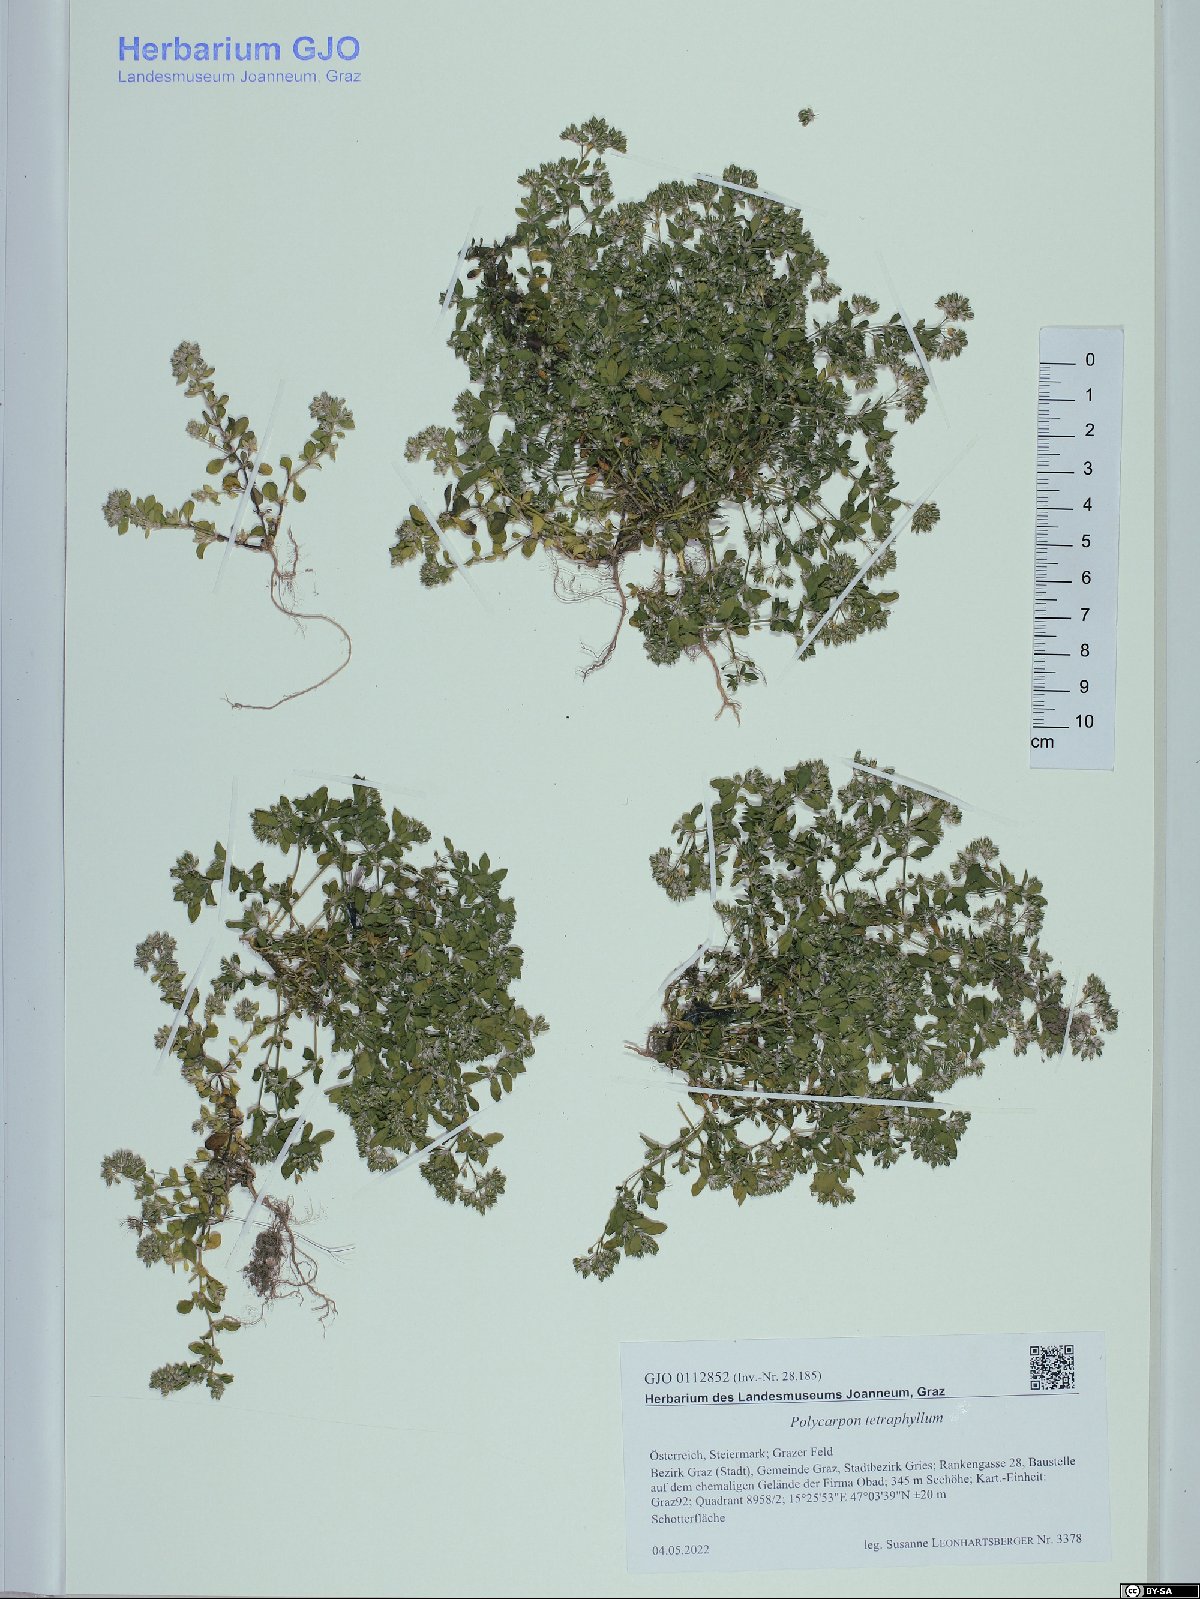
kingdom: Plantae
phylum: Tracheophyta
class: Magnoliopsida
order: Caryophyllales
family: Caryophyllaceae
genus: Polycarpon
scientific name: Polycarpon tetraphyllum
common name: Four-leaved all-seed
